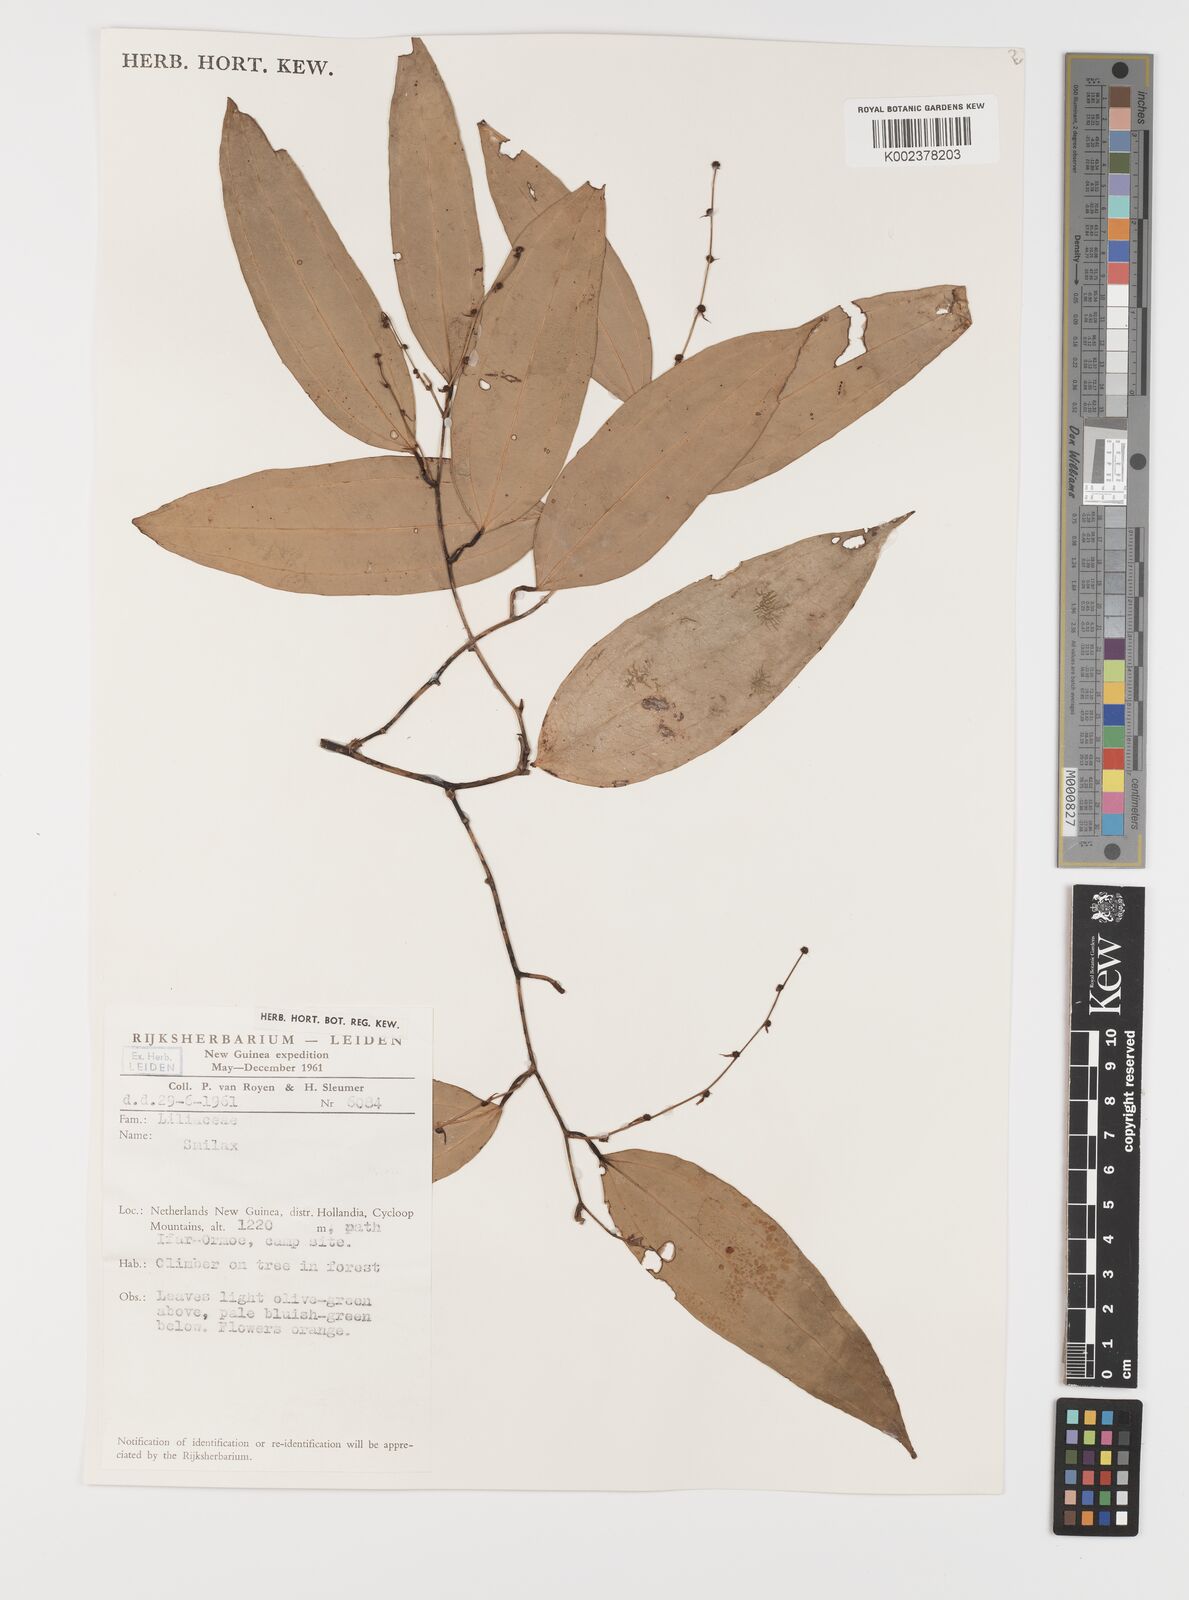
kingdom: Plantae
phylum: Tracheophyta
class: Liliopsida
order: Liliales
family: Smilacaceae
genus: Smilax
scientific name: Smilax
